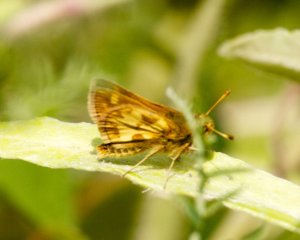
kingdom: Animalia
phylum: Arthropoda
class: Insecta
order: Lepidoptera
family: Hesperiidae
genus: Polites
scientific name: Polites coras
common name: Peck's Skipper
